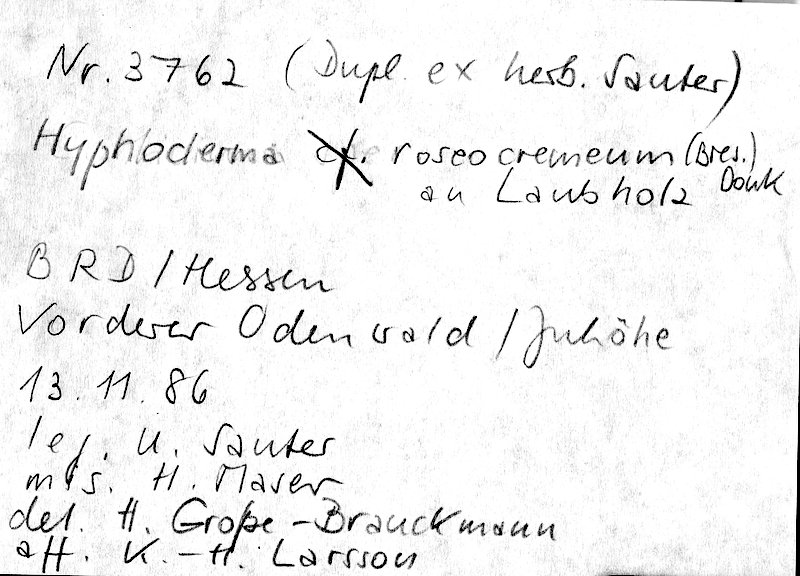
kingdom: Fungi
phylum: Basidiomycota
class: Agaricomycetes
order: Polyporales
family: Hyphodermataceae
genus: Hyphoderma
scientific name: Hyphoderma roseocremeum
